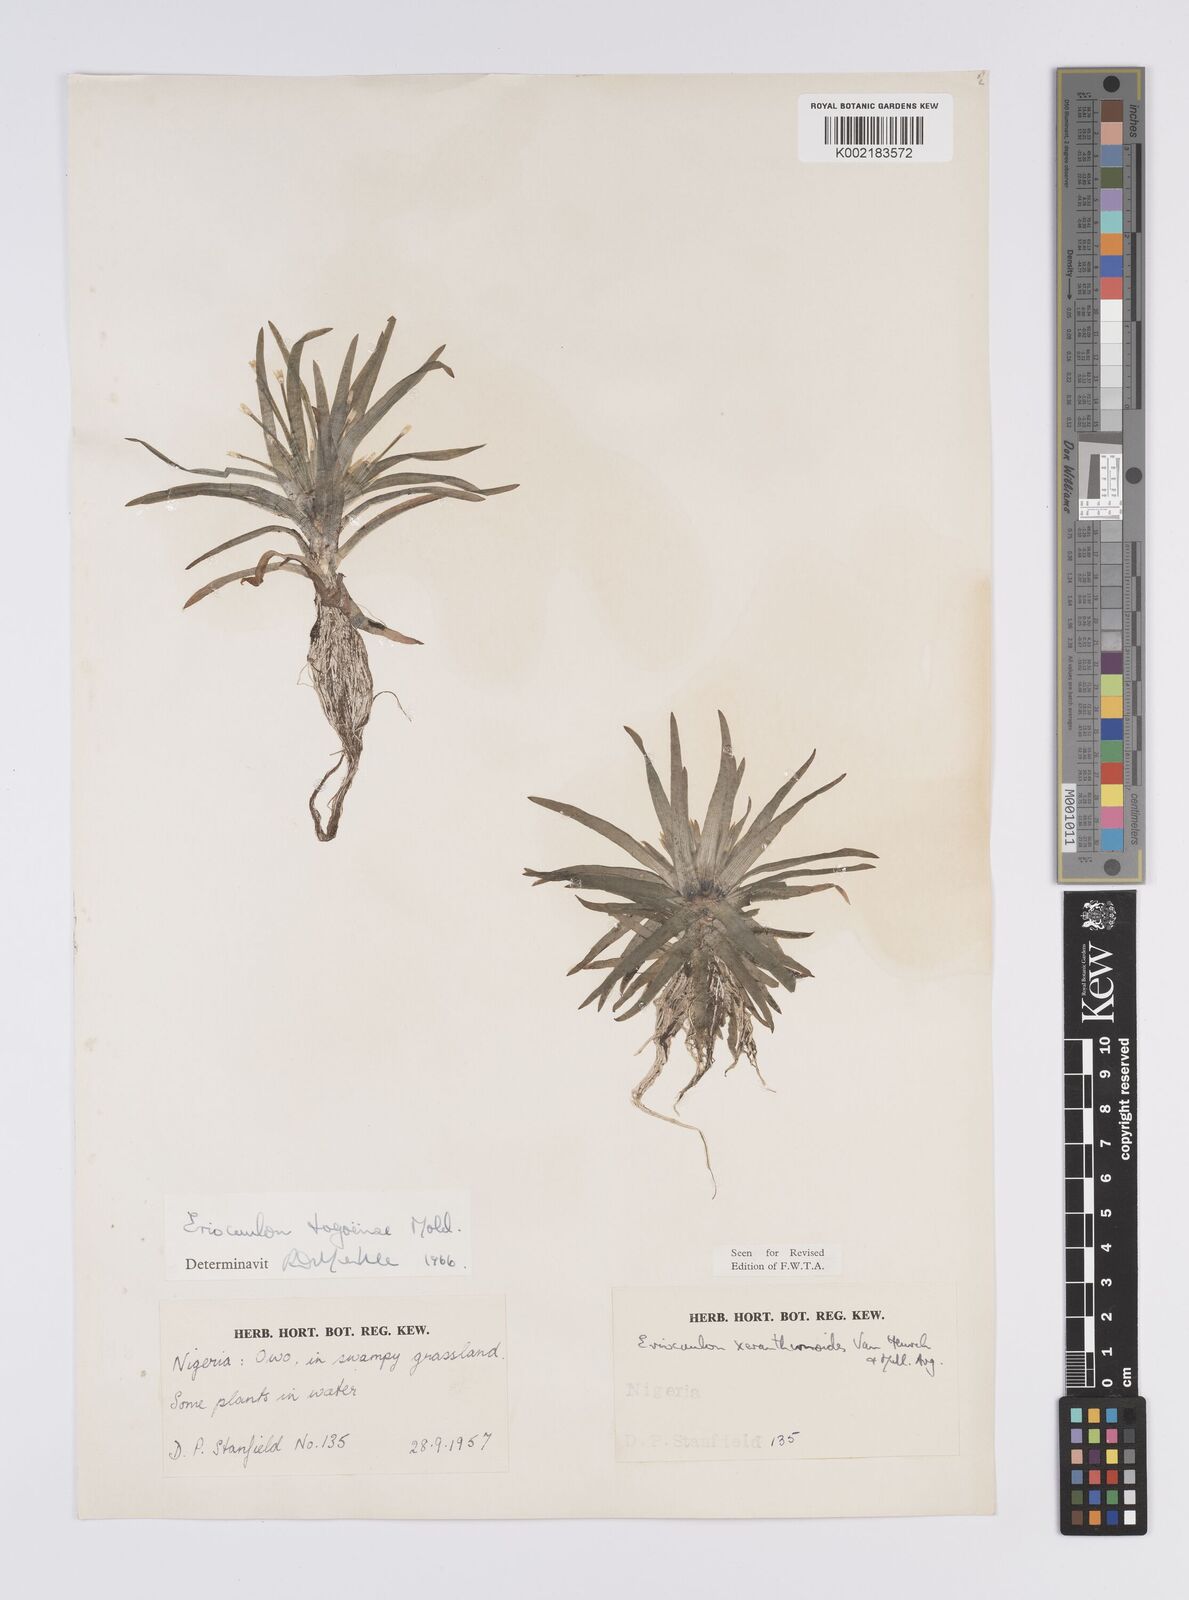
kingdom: Plantae
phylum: Tracheophyta
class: Liliopsida
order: Poales
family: Eriocaulaceae
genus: Eriocaulon
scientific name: Eriocaulon togoense
